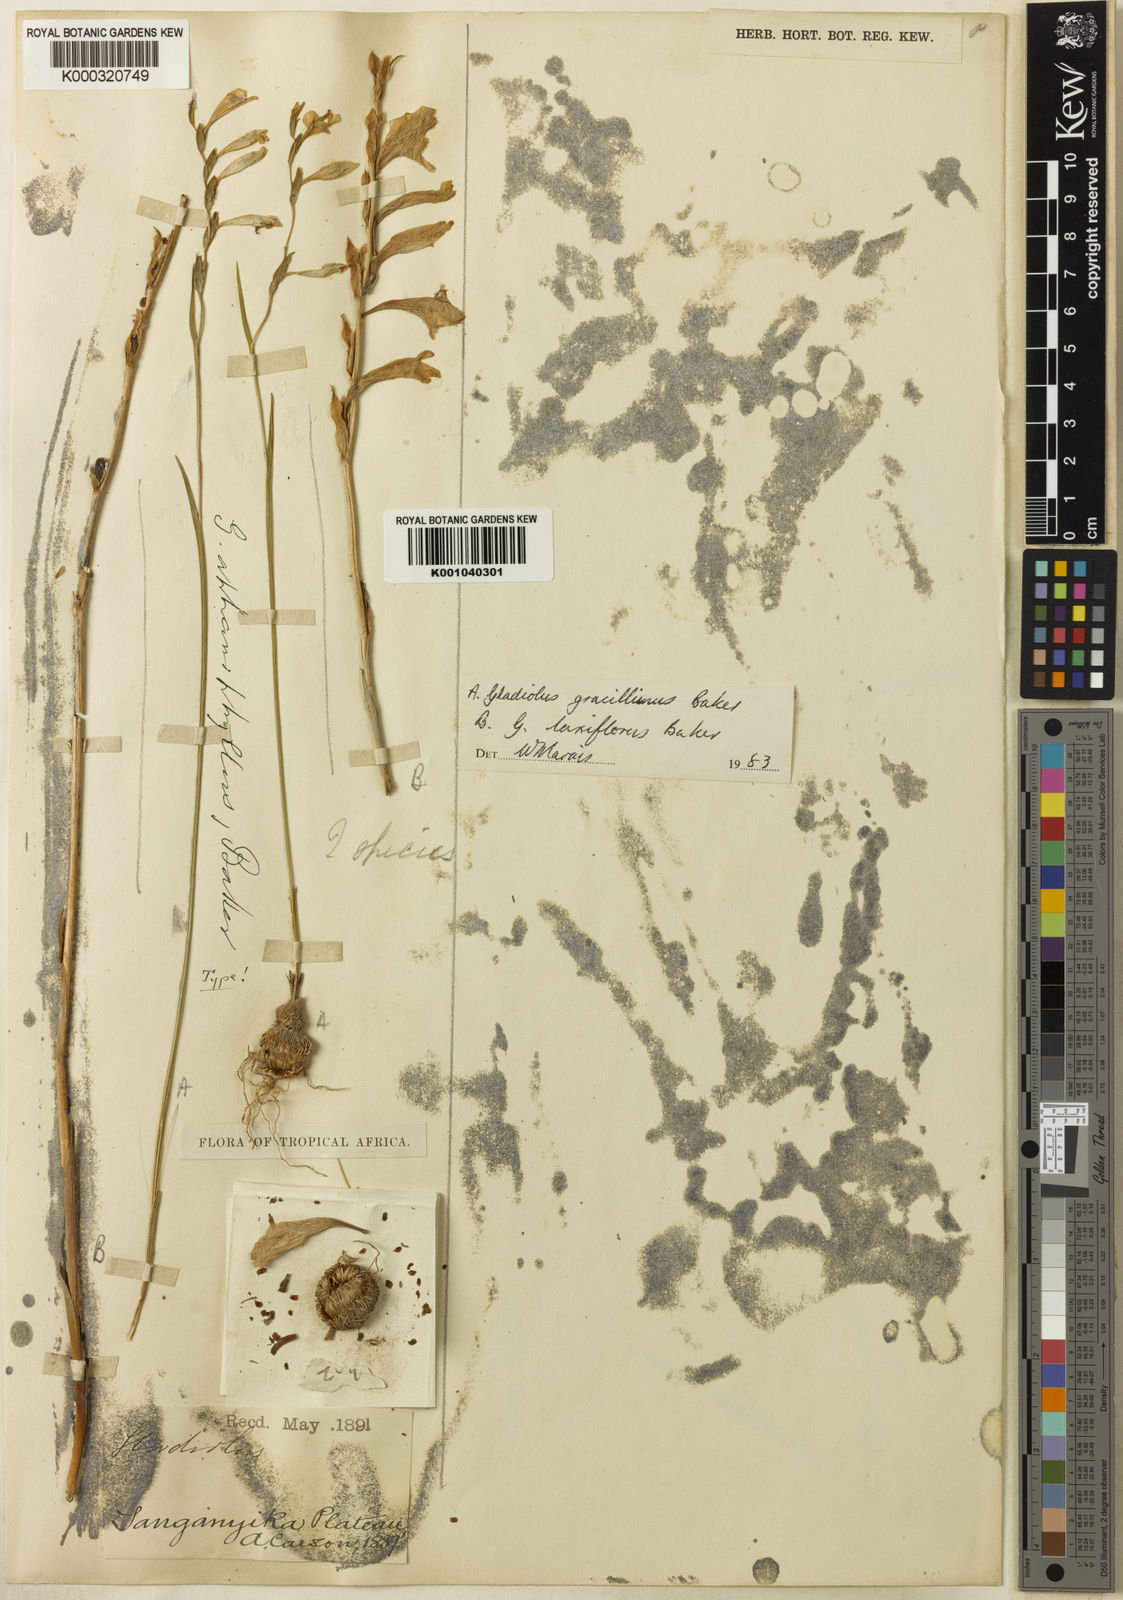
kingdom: Plantae
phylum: Tracheophyta
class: Liliopsida
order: Asparagales
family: Iridaceae
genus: Gladiolus
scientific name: Gladiolus gracillimus
